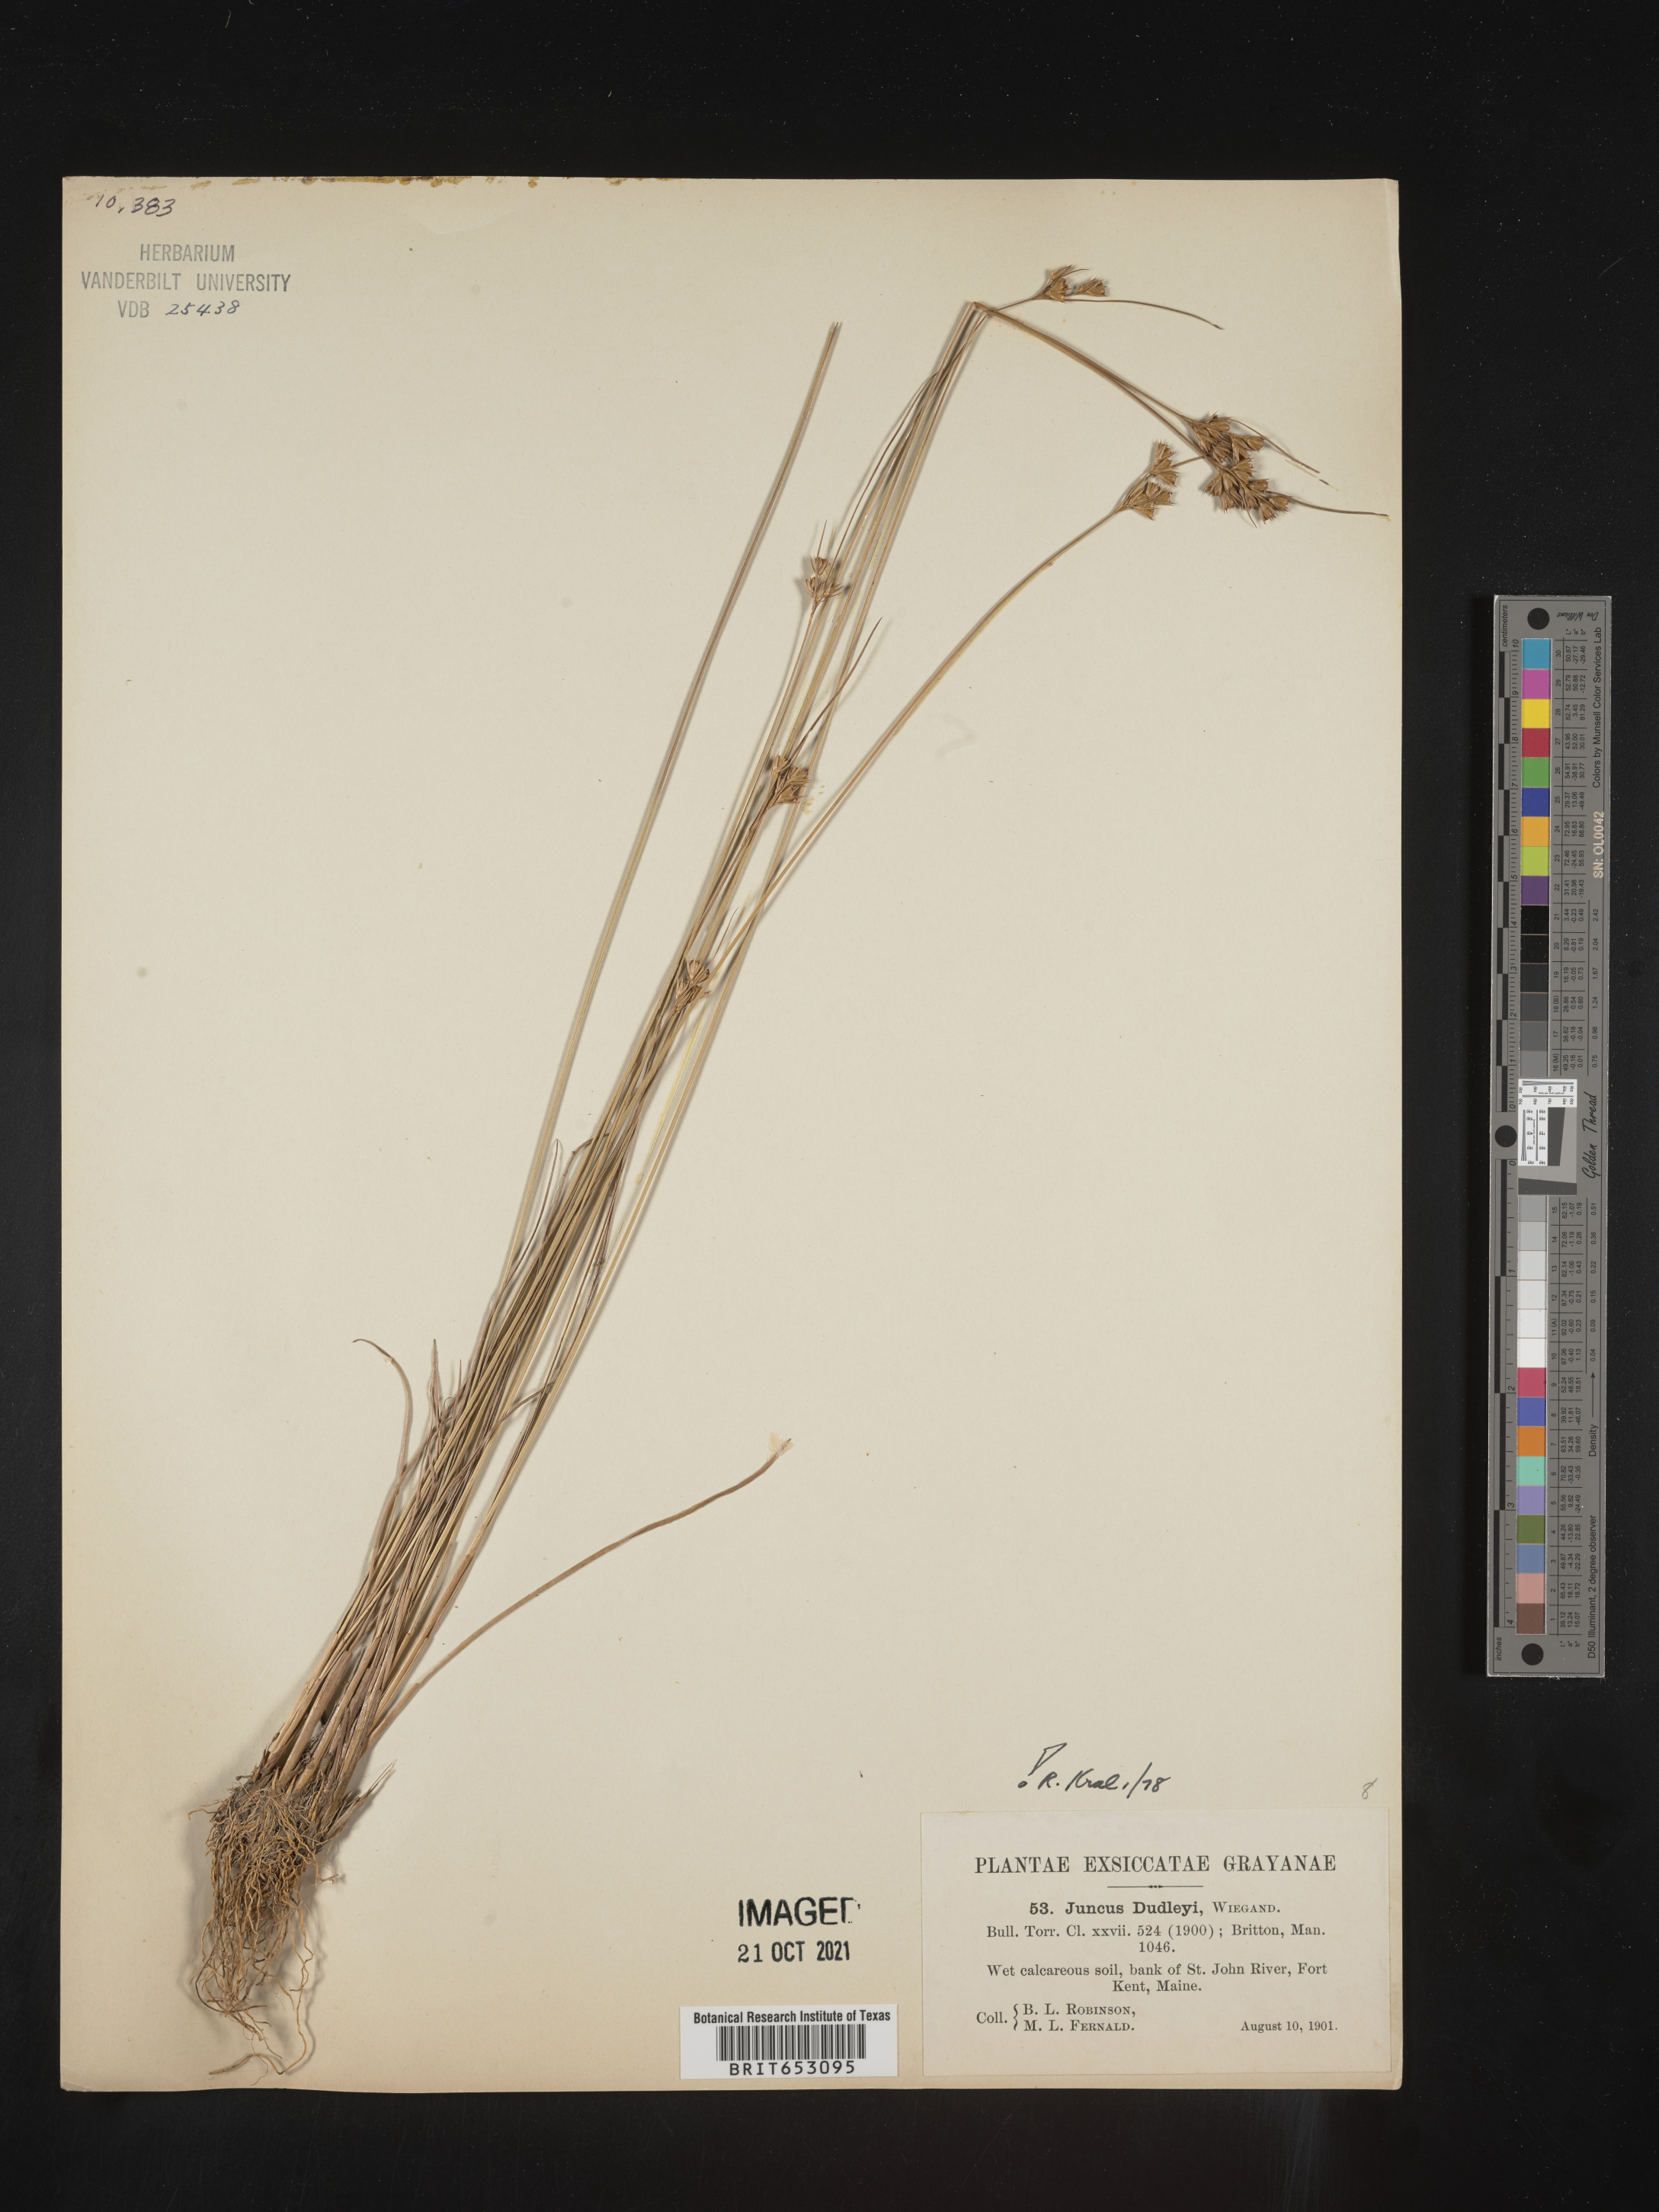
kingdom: Plantae
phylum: Tracheophyta
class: Liliopsida
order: Poales
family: Juncaceae
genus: Juncus
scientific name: Juncus dudleyi
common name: Dudley's rush
